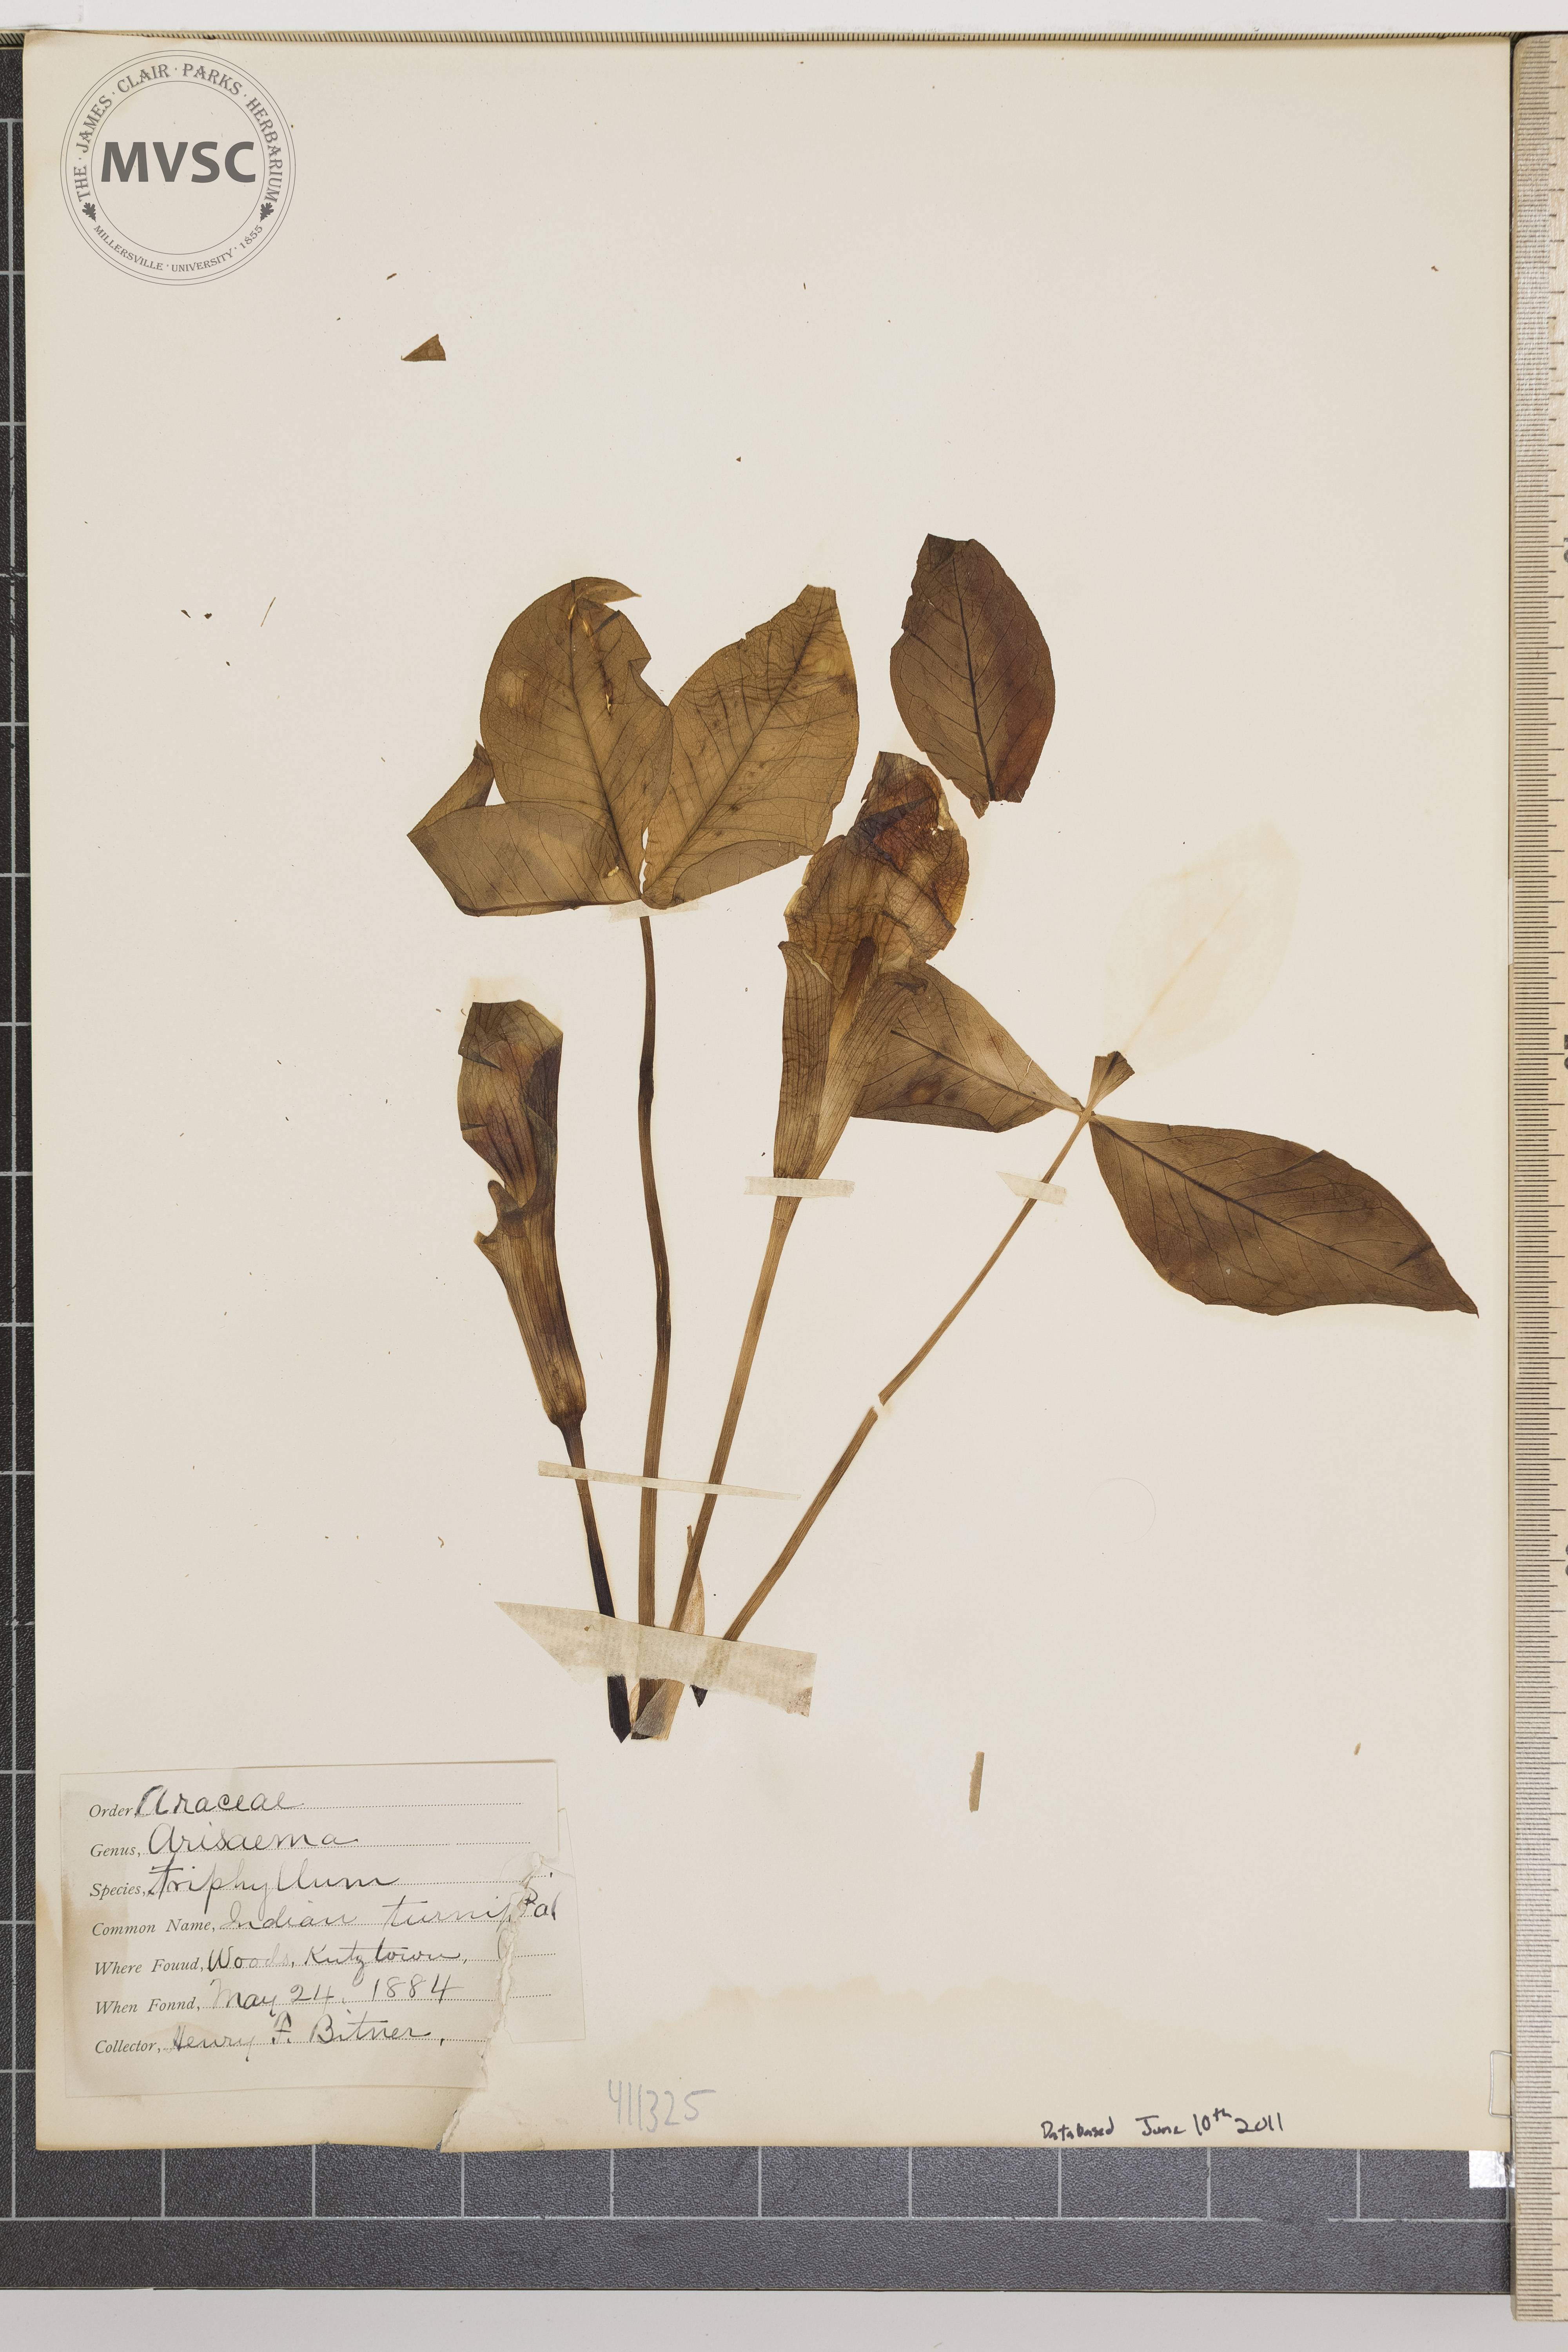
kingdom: Plantae
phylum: Tracheophyta
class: Liliopsida
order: Alismatales
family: Araceae
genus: Arisaema
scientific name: Arisaema triphyllum
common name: Indian turnip
